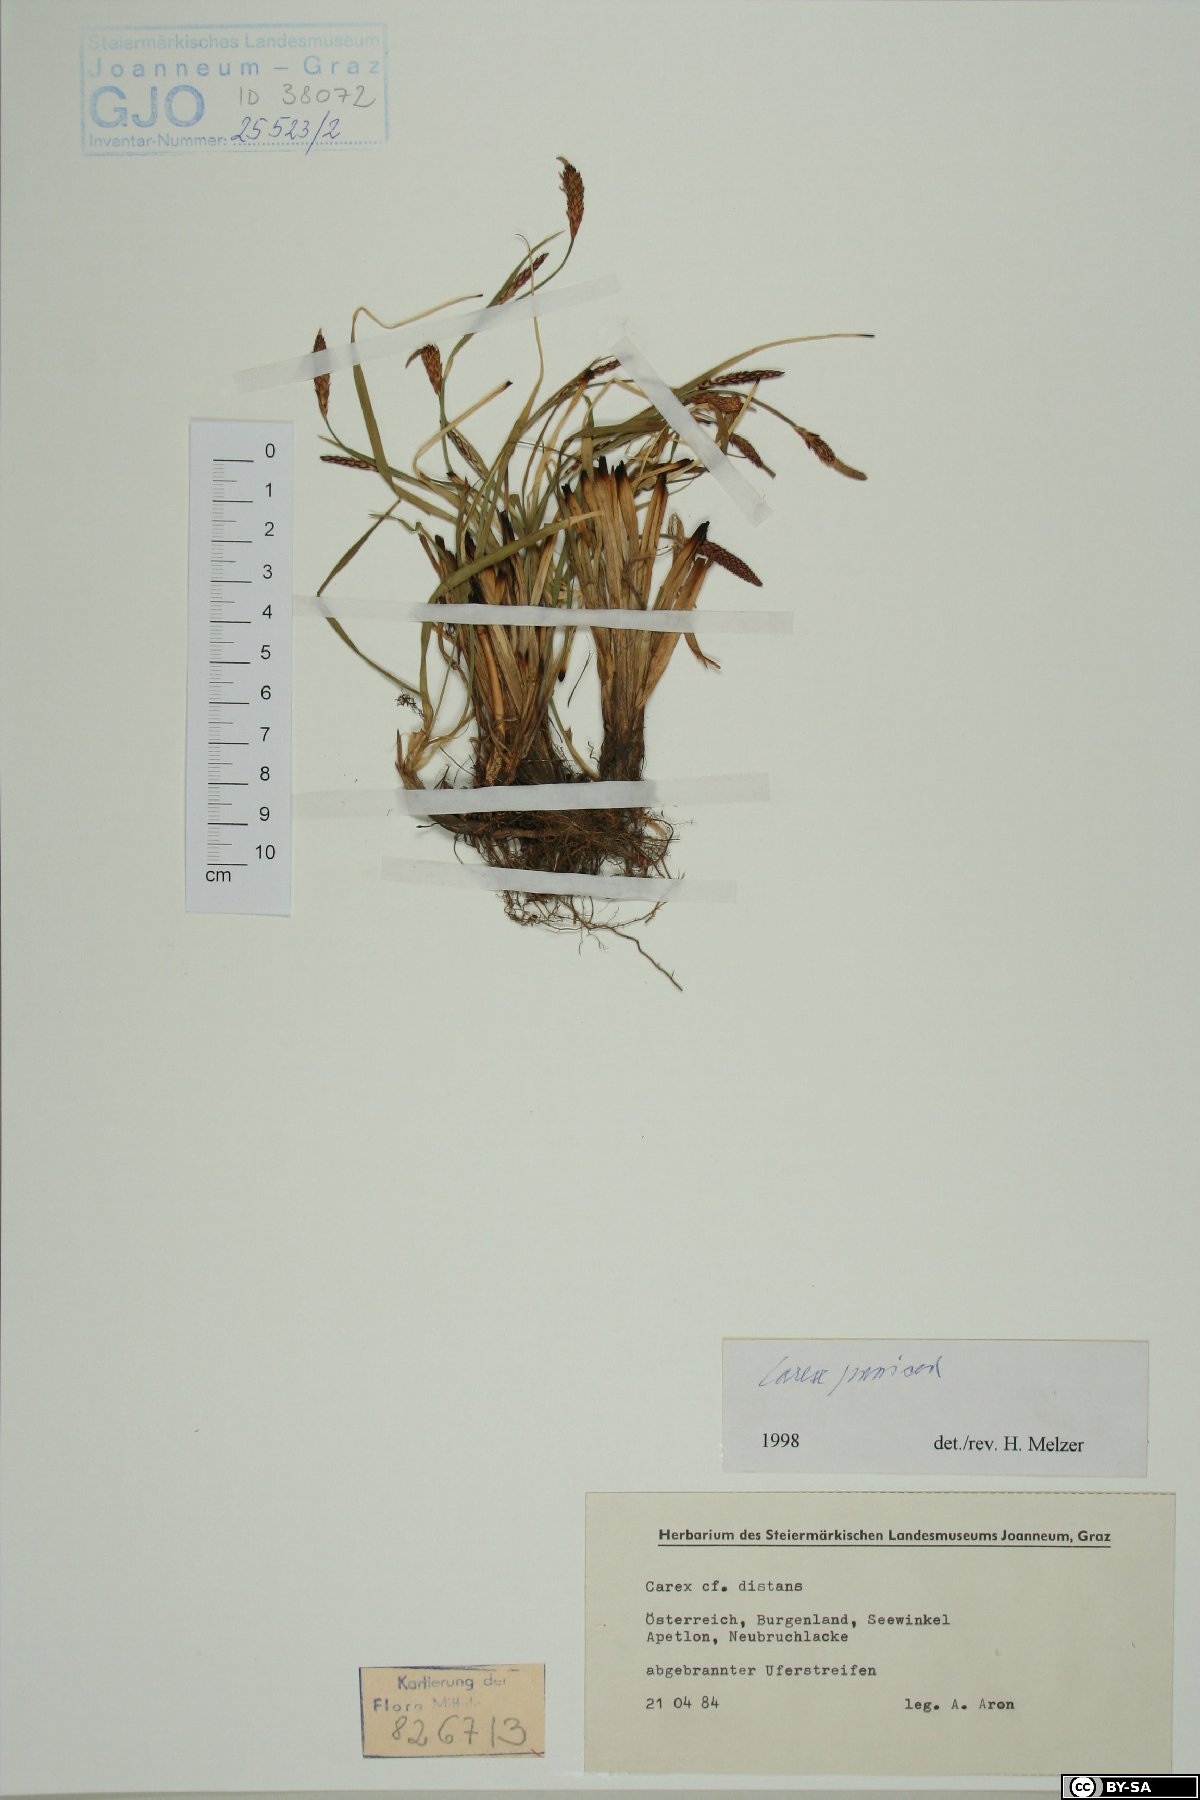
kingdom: Plantae
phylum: Tracheophyta
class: Liliopsida
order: Poales
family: Cyperaceae
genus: Carex
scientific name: Carex panicea
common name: Carnation sedge
